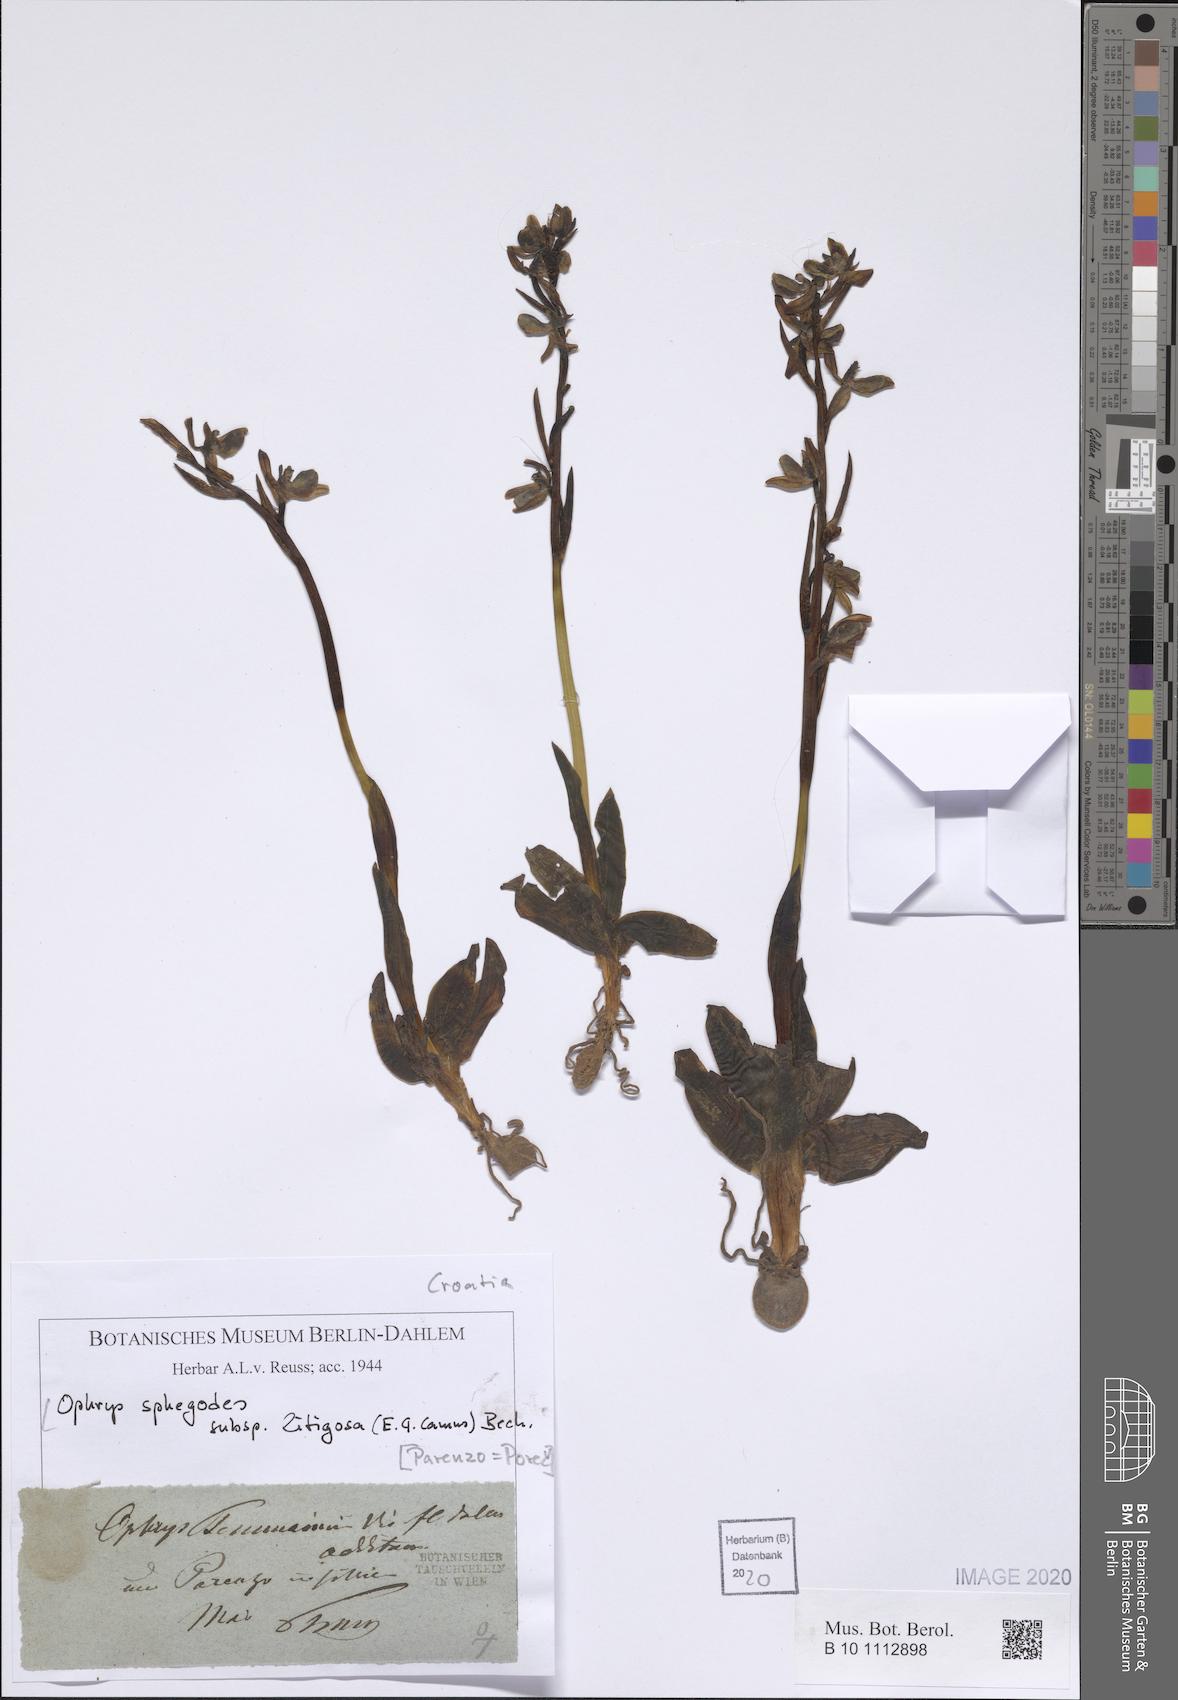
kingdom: Plantae
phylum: Tracheophyta
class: Liliopsida
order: Asparagales
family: Orchidaceae
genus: Ophrys
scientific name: Ophrys sphegodes
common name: Early spider-orchid
